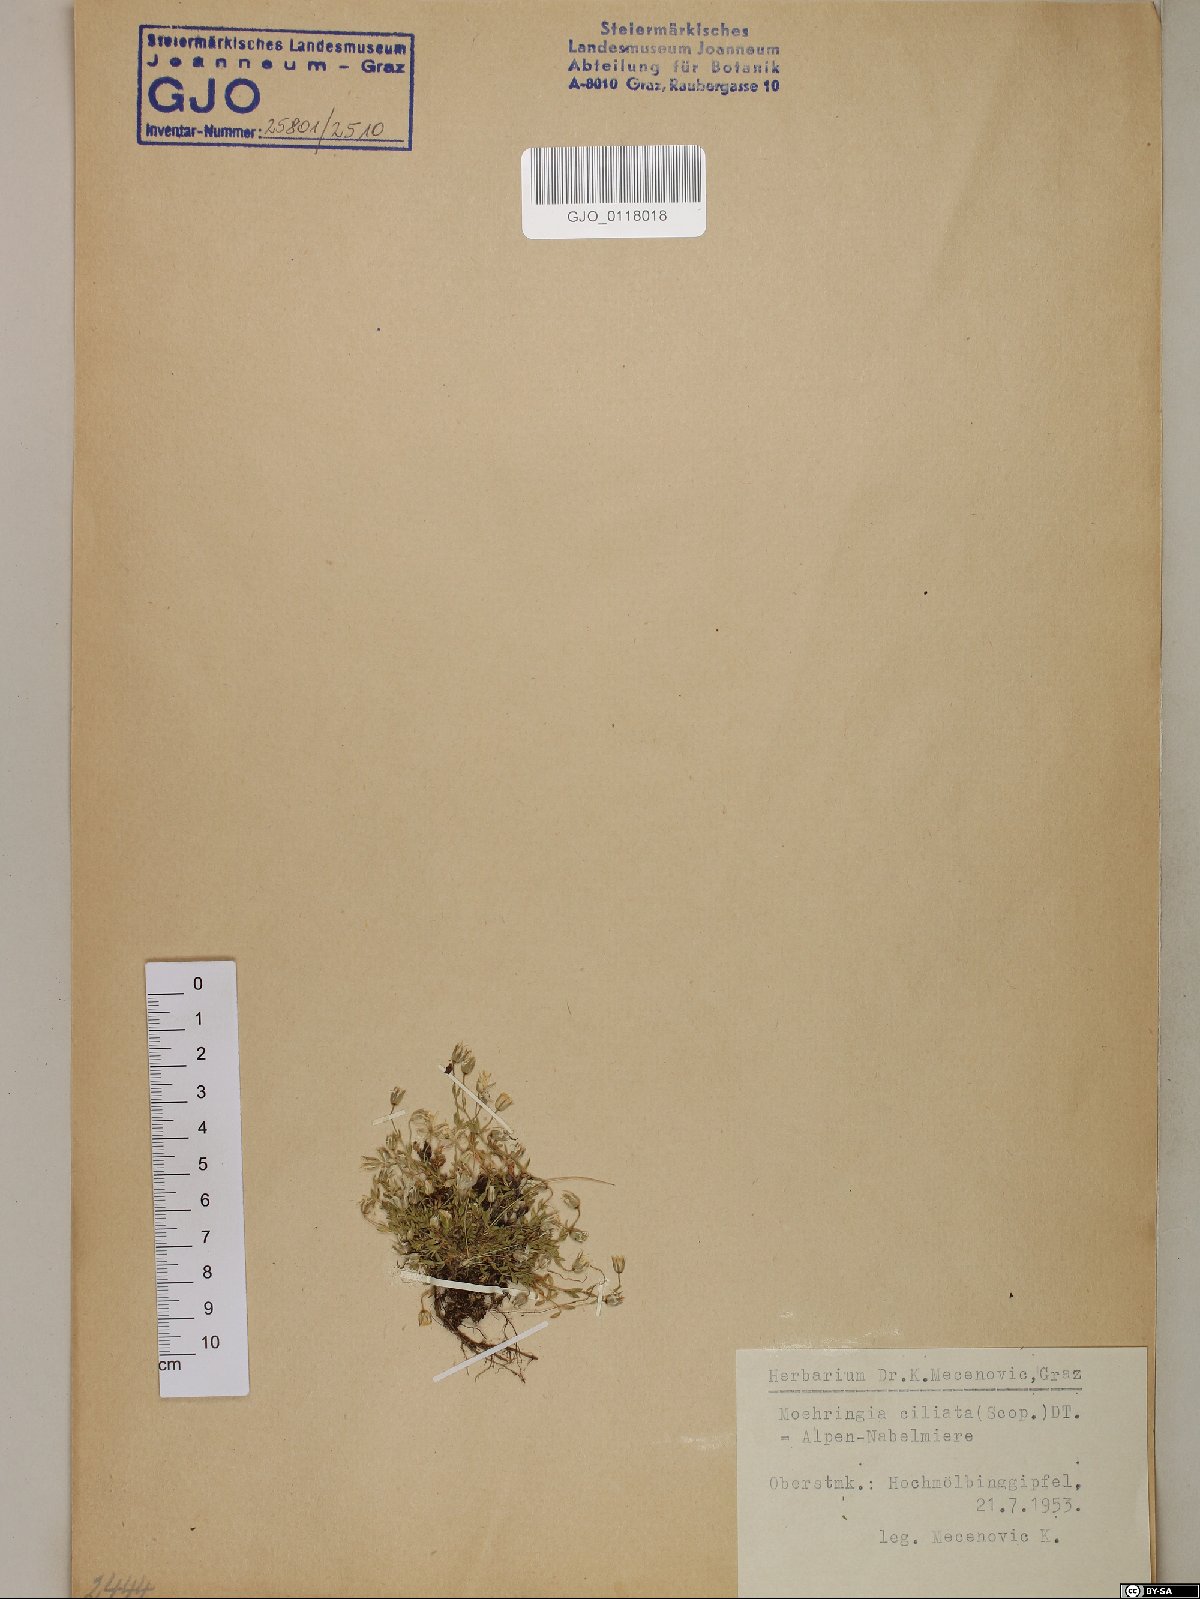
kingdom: Plantae
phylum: Tracheophyta
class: Magnoliopsida
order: Caryophyllales
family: Caryophyllaceae
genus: Moehringia
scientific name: Moehringia ciliata
